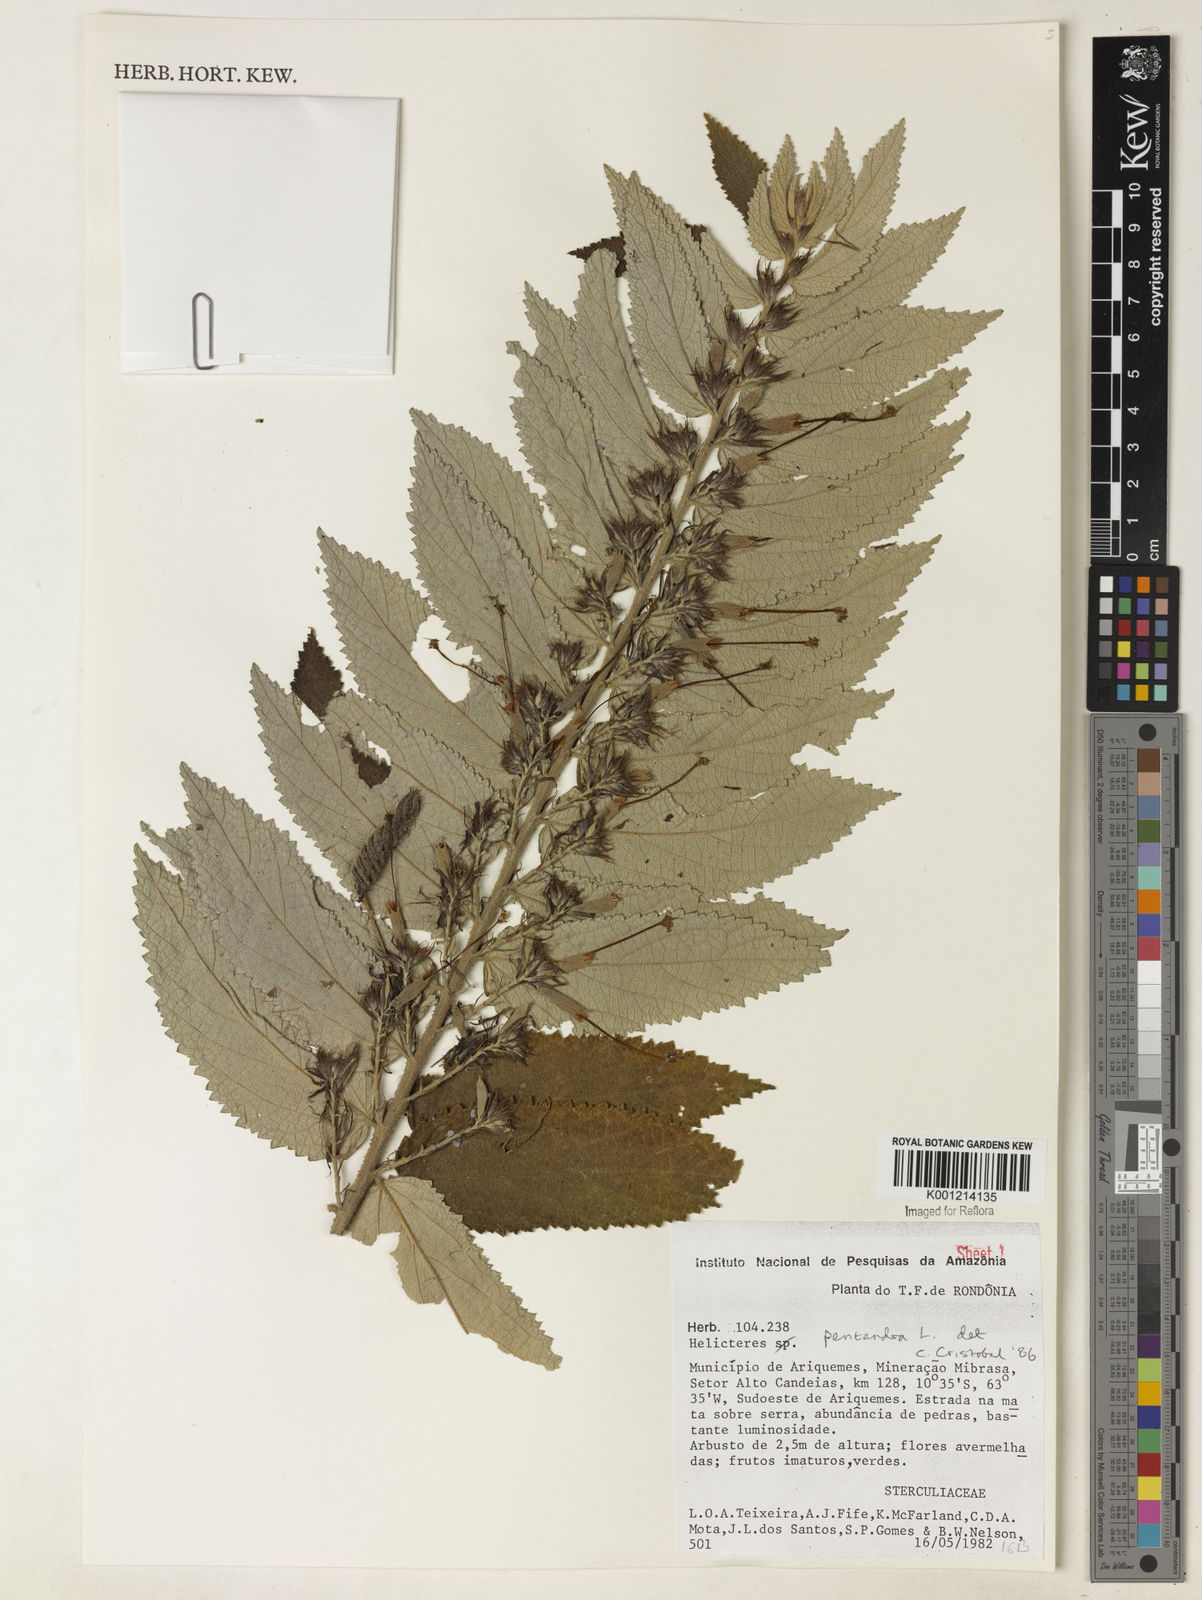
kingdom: Plantae
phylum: Tracheophyta
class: Magnoliopsida
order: Malvales
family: Malvaceae
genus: Helicteres
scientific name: Helicteres pentandra
